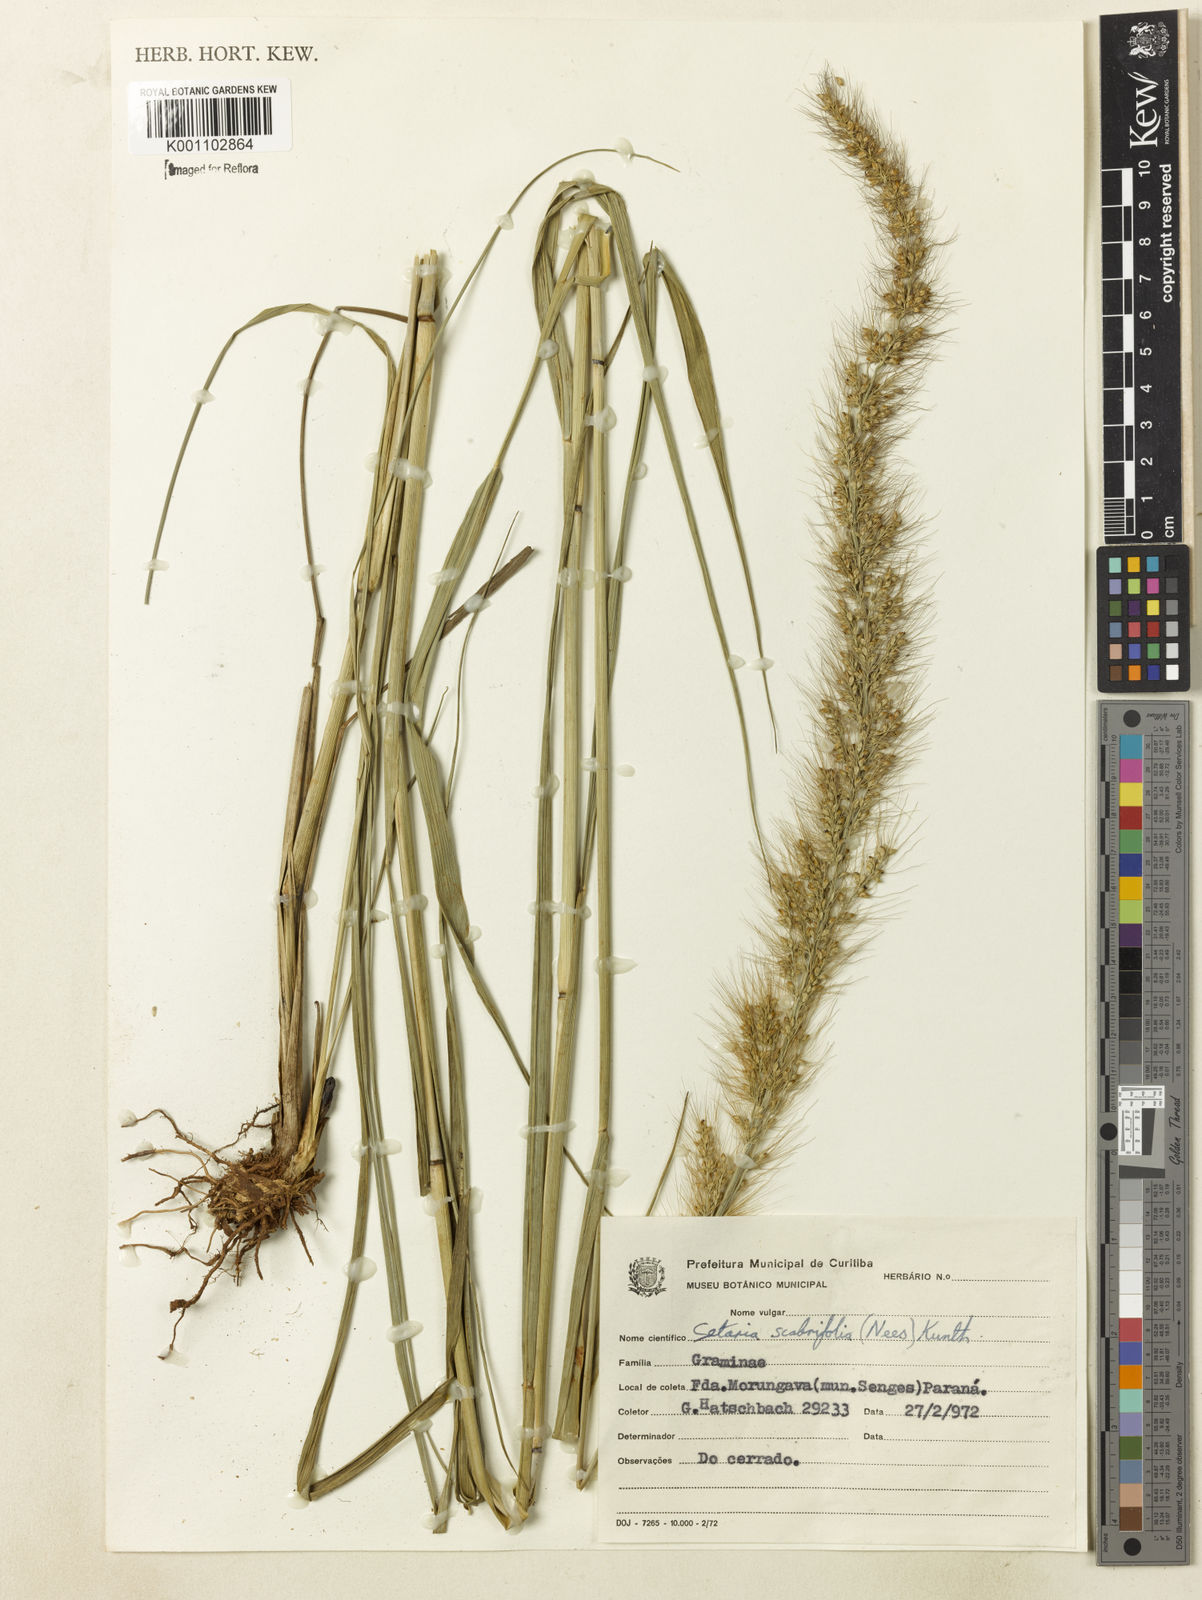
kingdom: Plantae
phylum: Tracheophyta
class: Liliopsida
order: Poales
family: Poaceae
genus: Setaria
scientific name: Setaria scabrifolia
